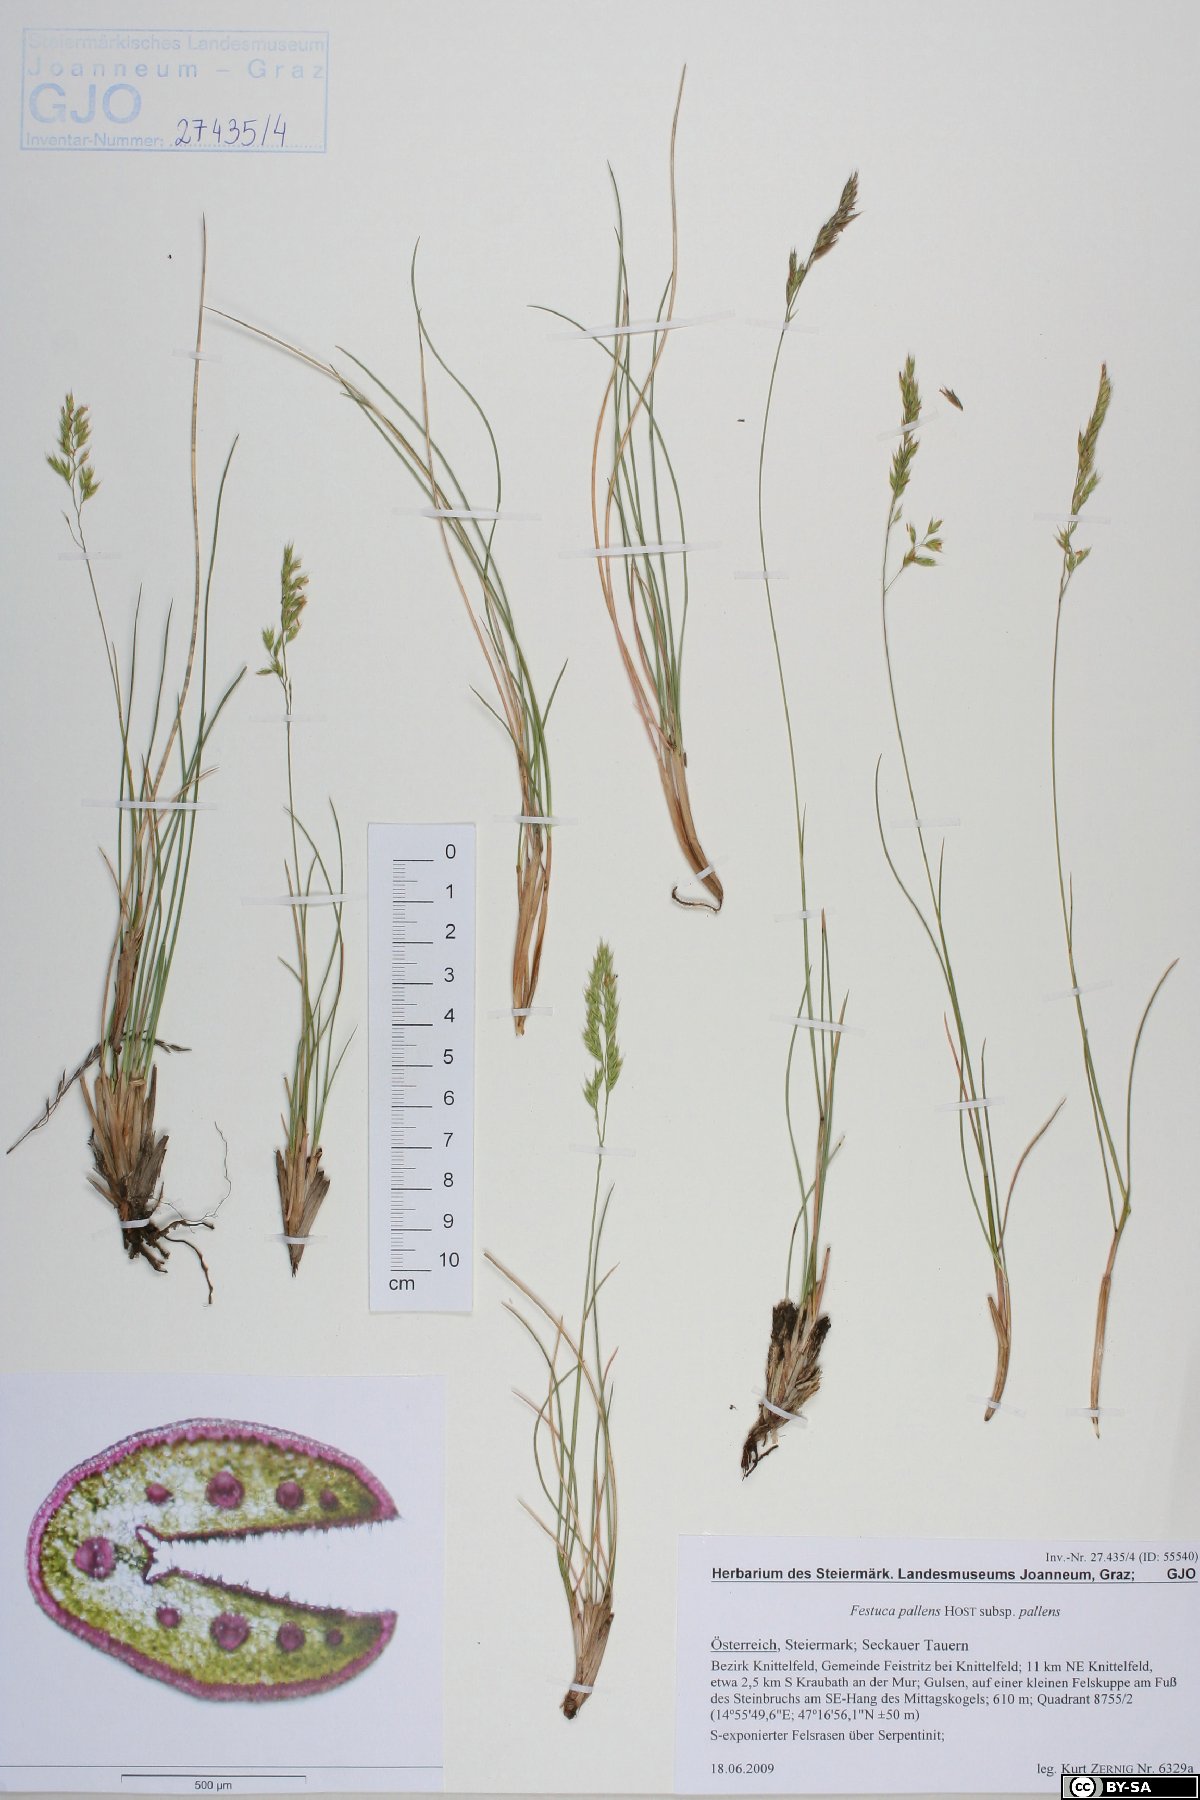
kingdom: Plantae
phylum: Tracheophyta
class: Liliopsida
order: Poales
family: Poaceae
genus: Festuca
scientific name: Festuca pallens
